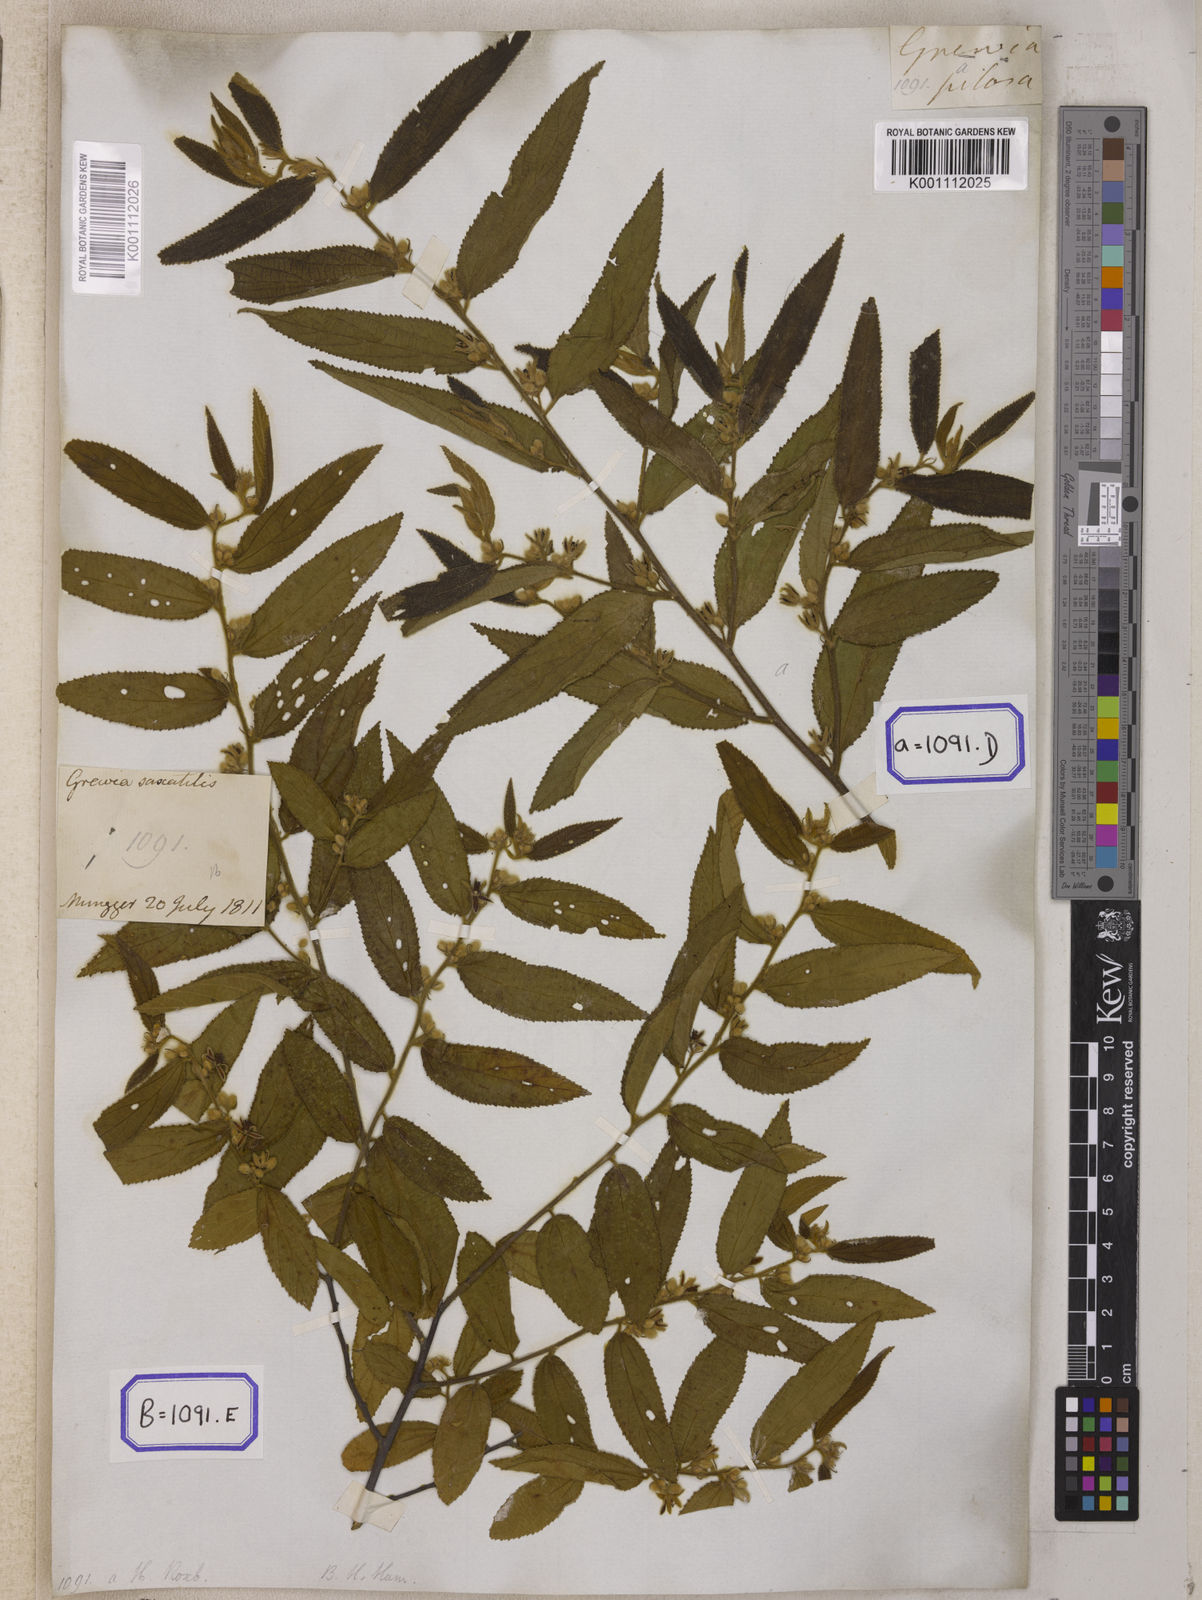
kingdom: Plantae
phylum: Tracheophyta
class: Magnoliopsida
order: Malvales
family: Malvaceae
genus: Grewia
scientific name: Grewia excelsa
